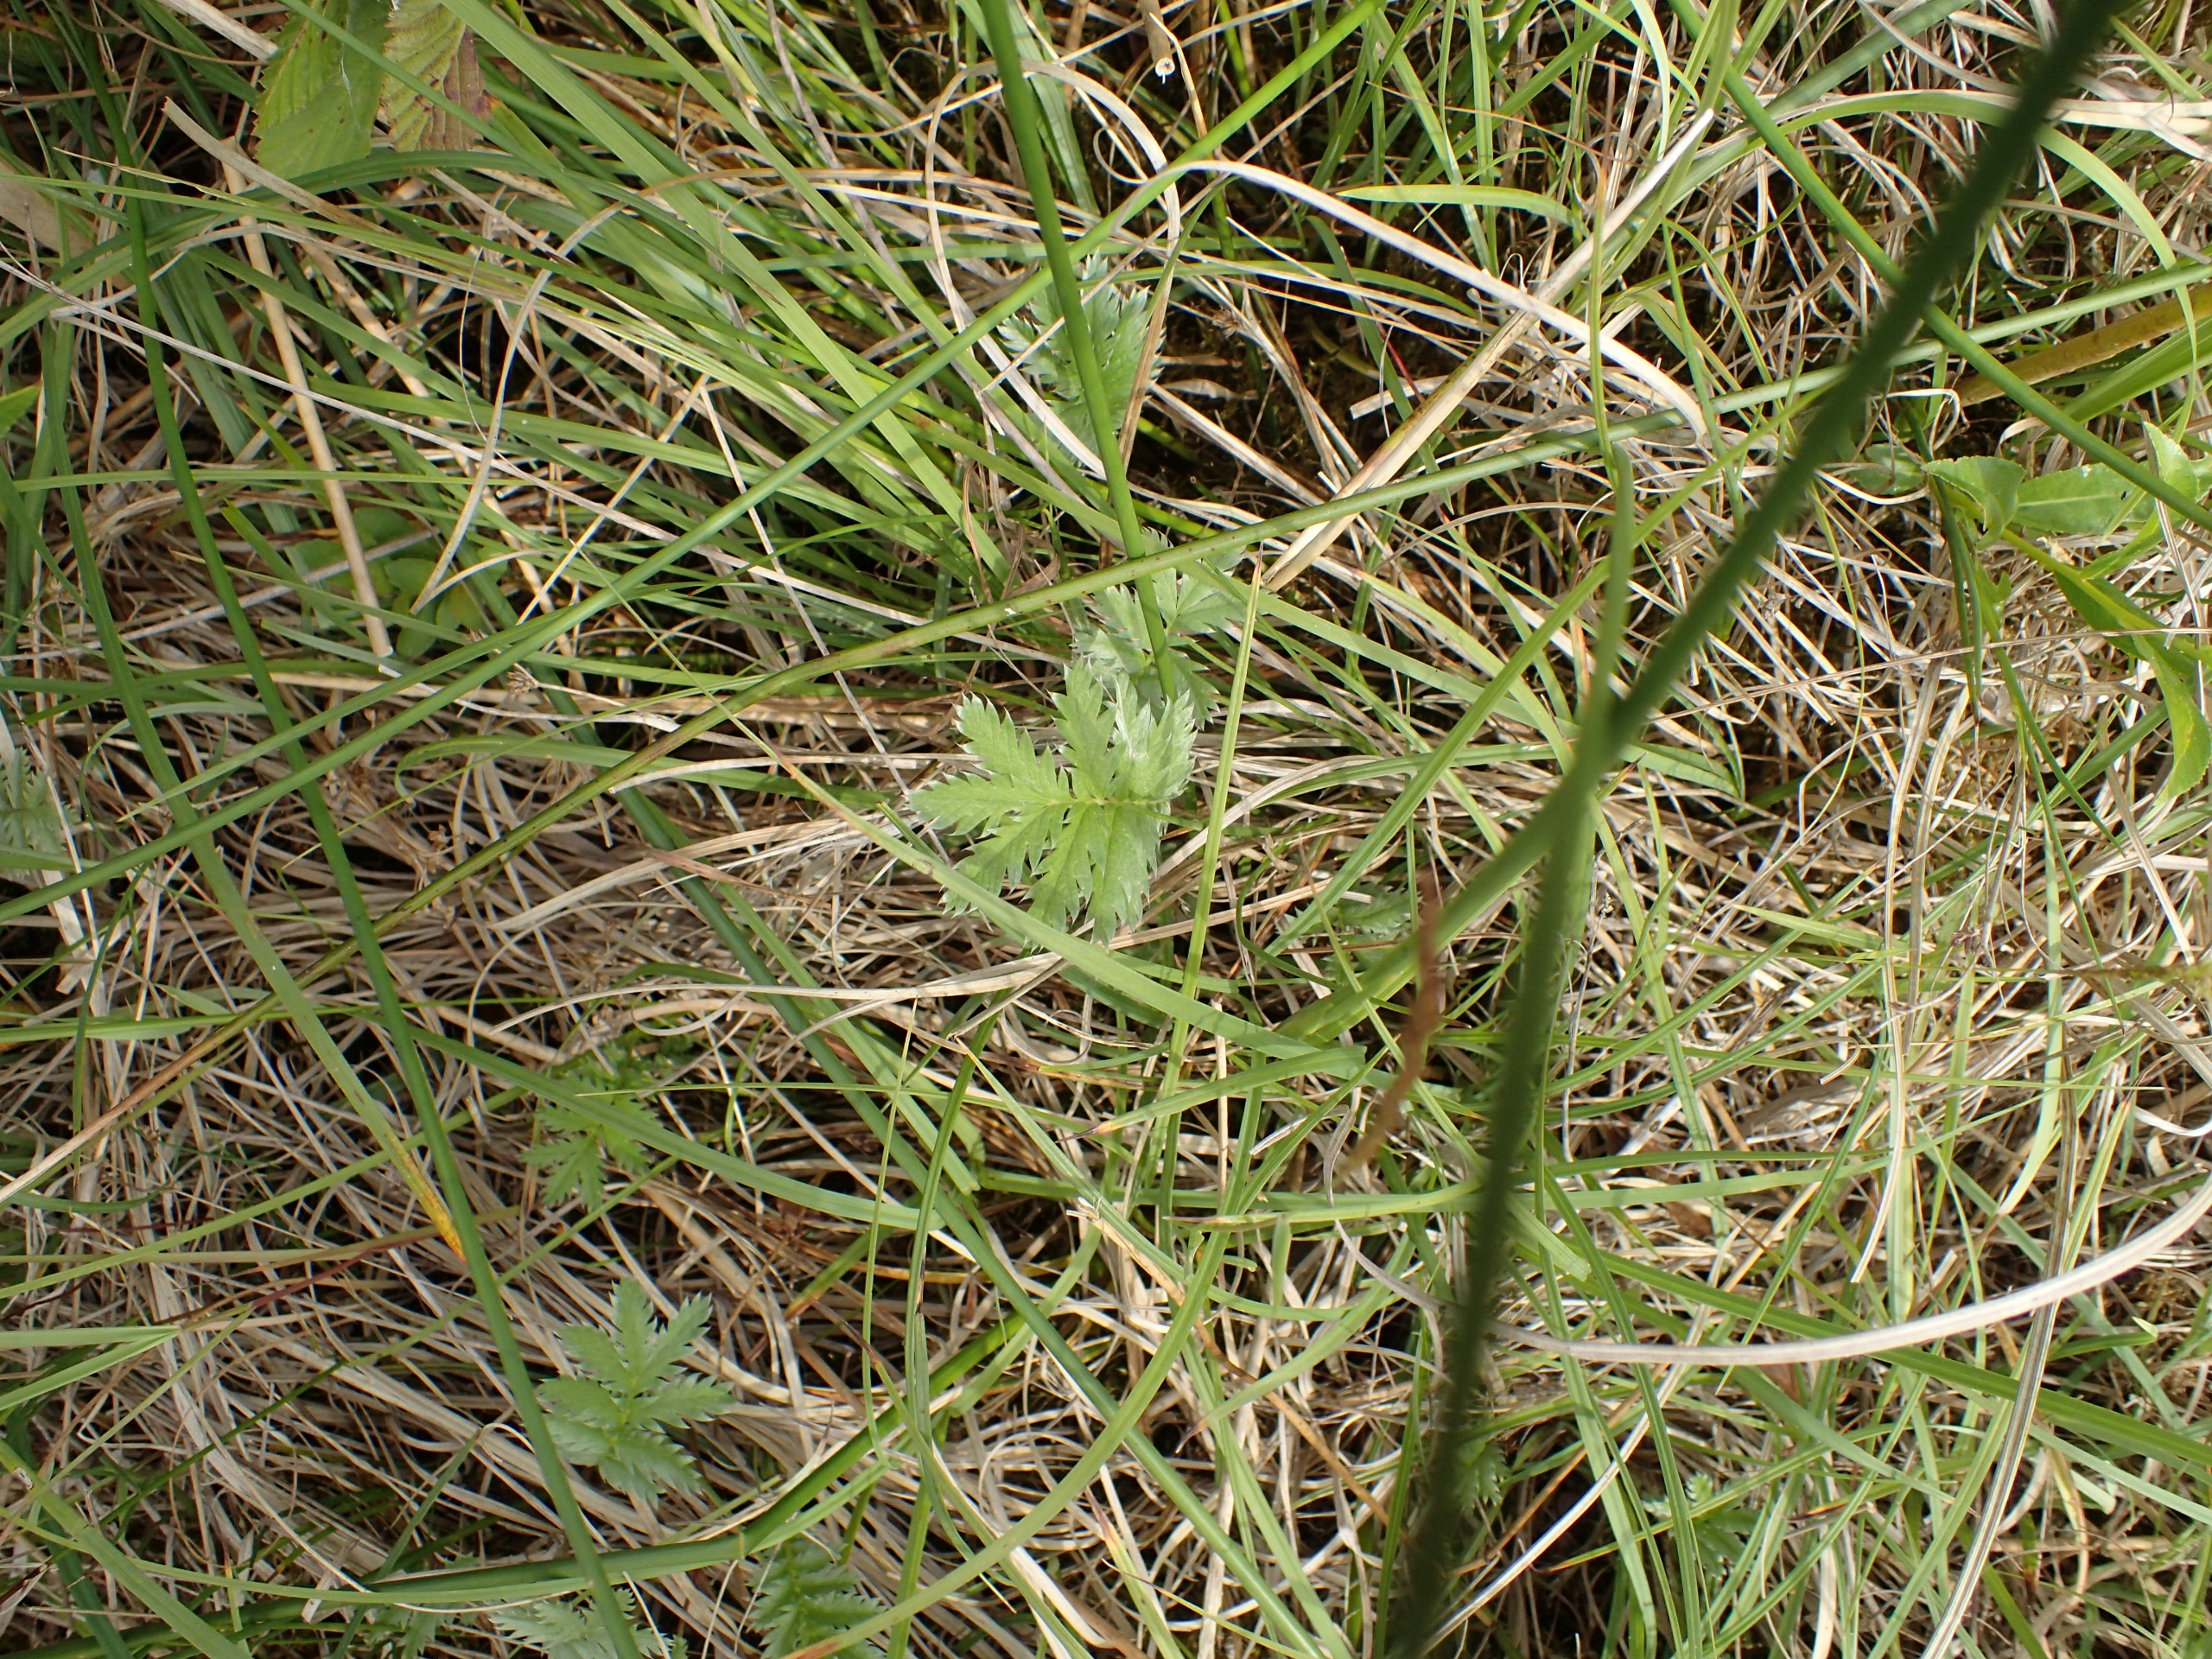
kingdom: Plantae
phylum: Tracheophyta
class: Magnoliopsida
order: Rosales
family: Rosaceae
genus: Argentina
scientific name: Argentina anserina
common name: Gåsepotentil
